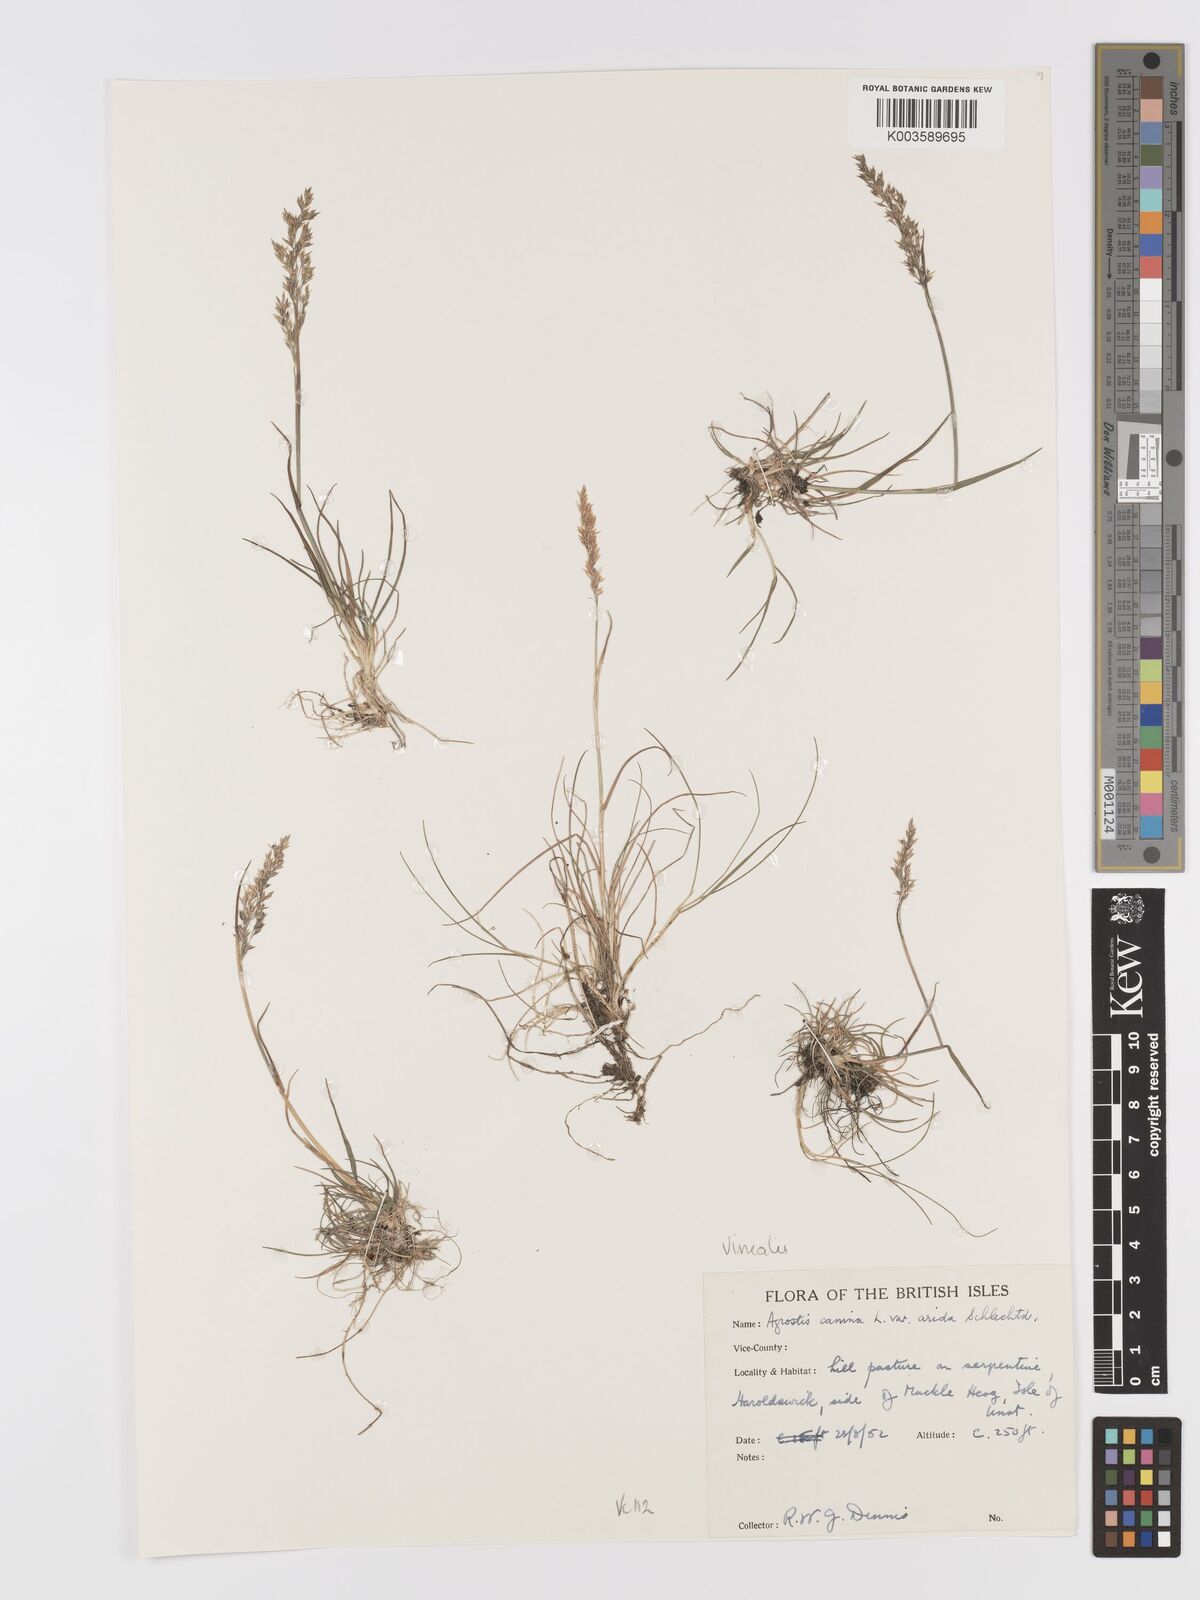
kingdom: Plantae
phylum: Tracheophyta
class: Liliopsida
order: Poales
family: Poaceae
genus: Agrostis
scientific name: Agrostis
